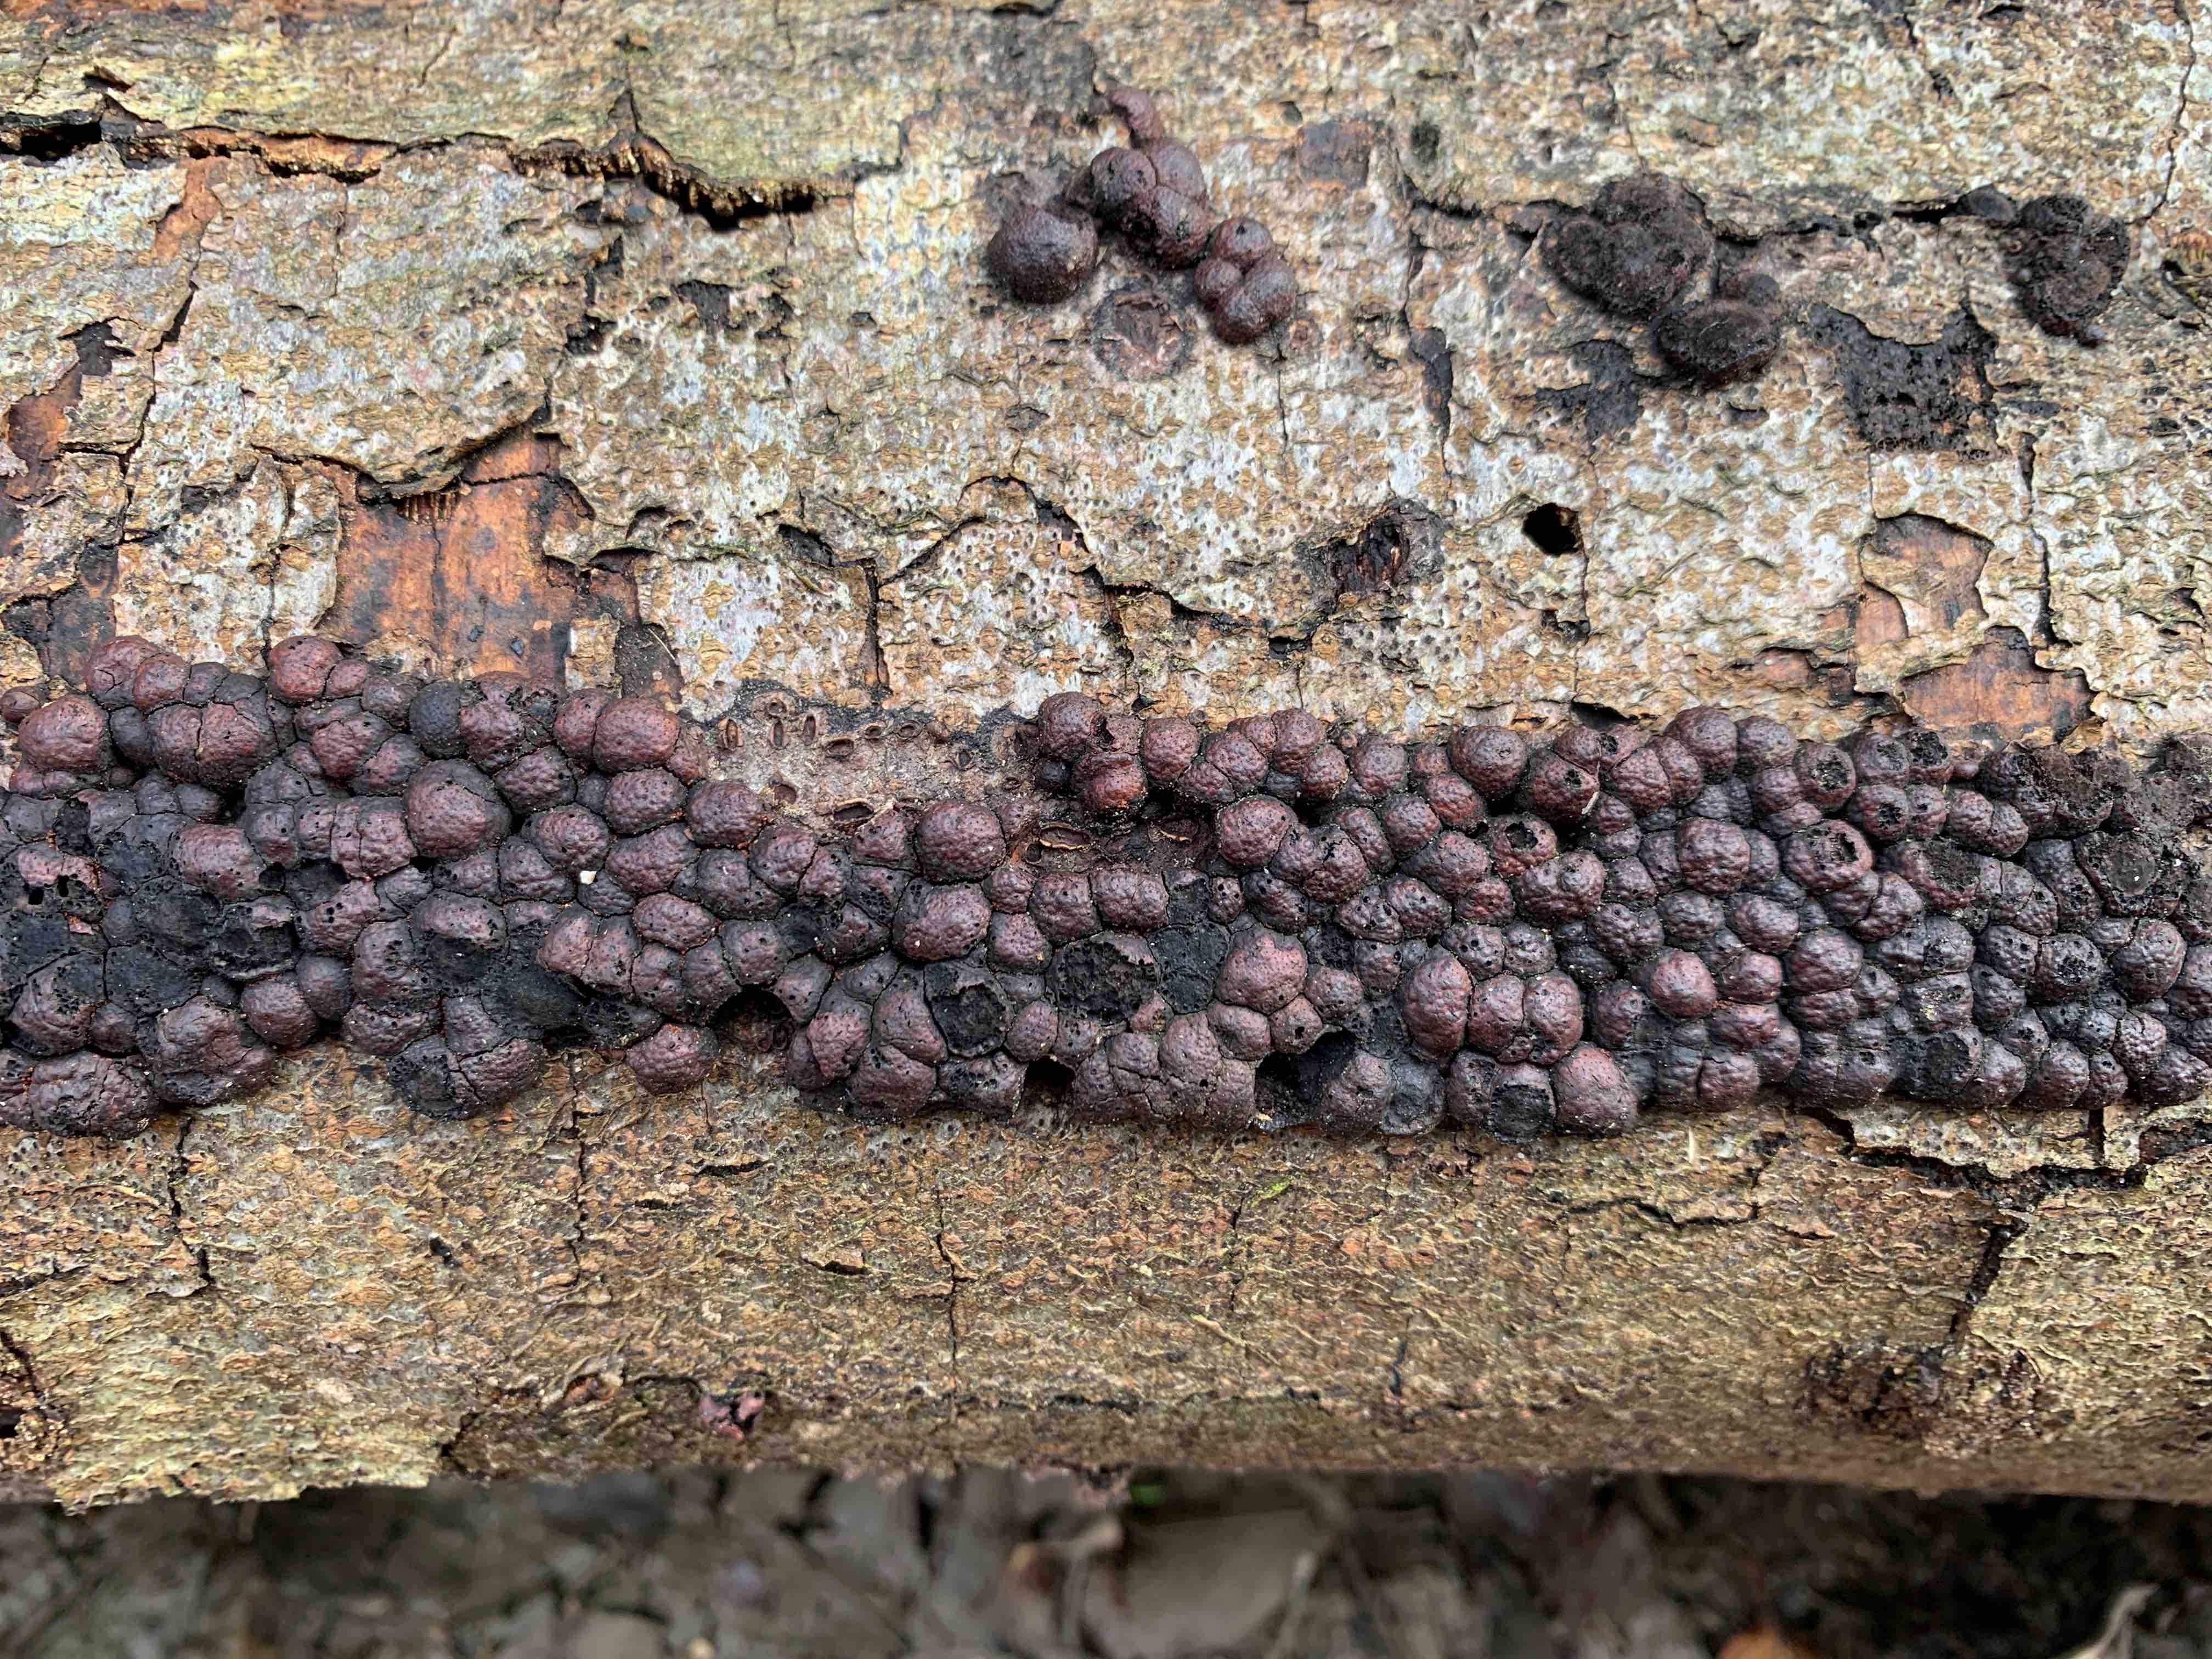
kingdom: Fungi
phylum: Ascomycota
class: Sordariomycetes
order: Xylariales
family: Hypoxylaceae
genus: Hypoxylon
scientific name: Hypoxylon fragiforme
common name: kuljordbær
